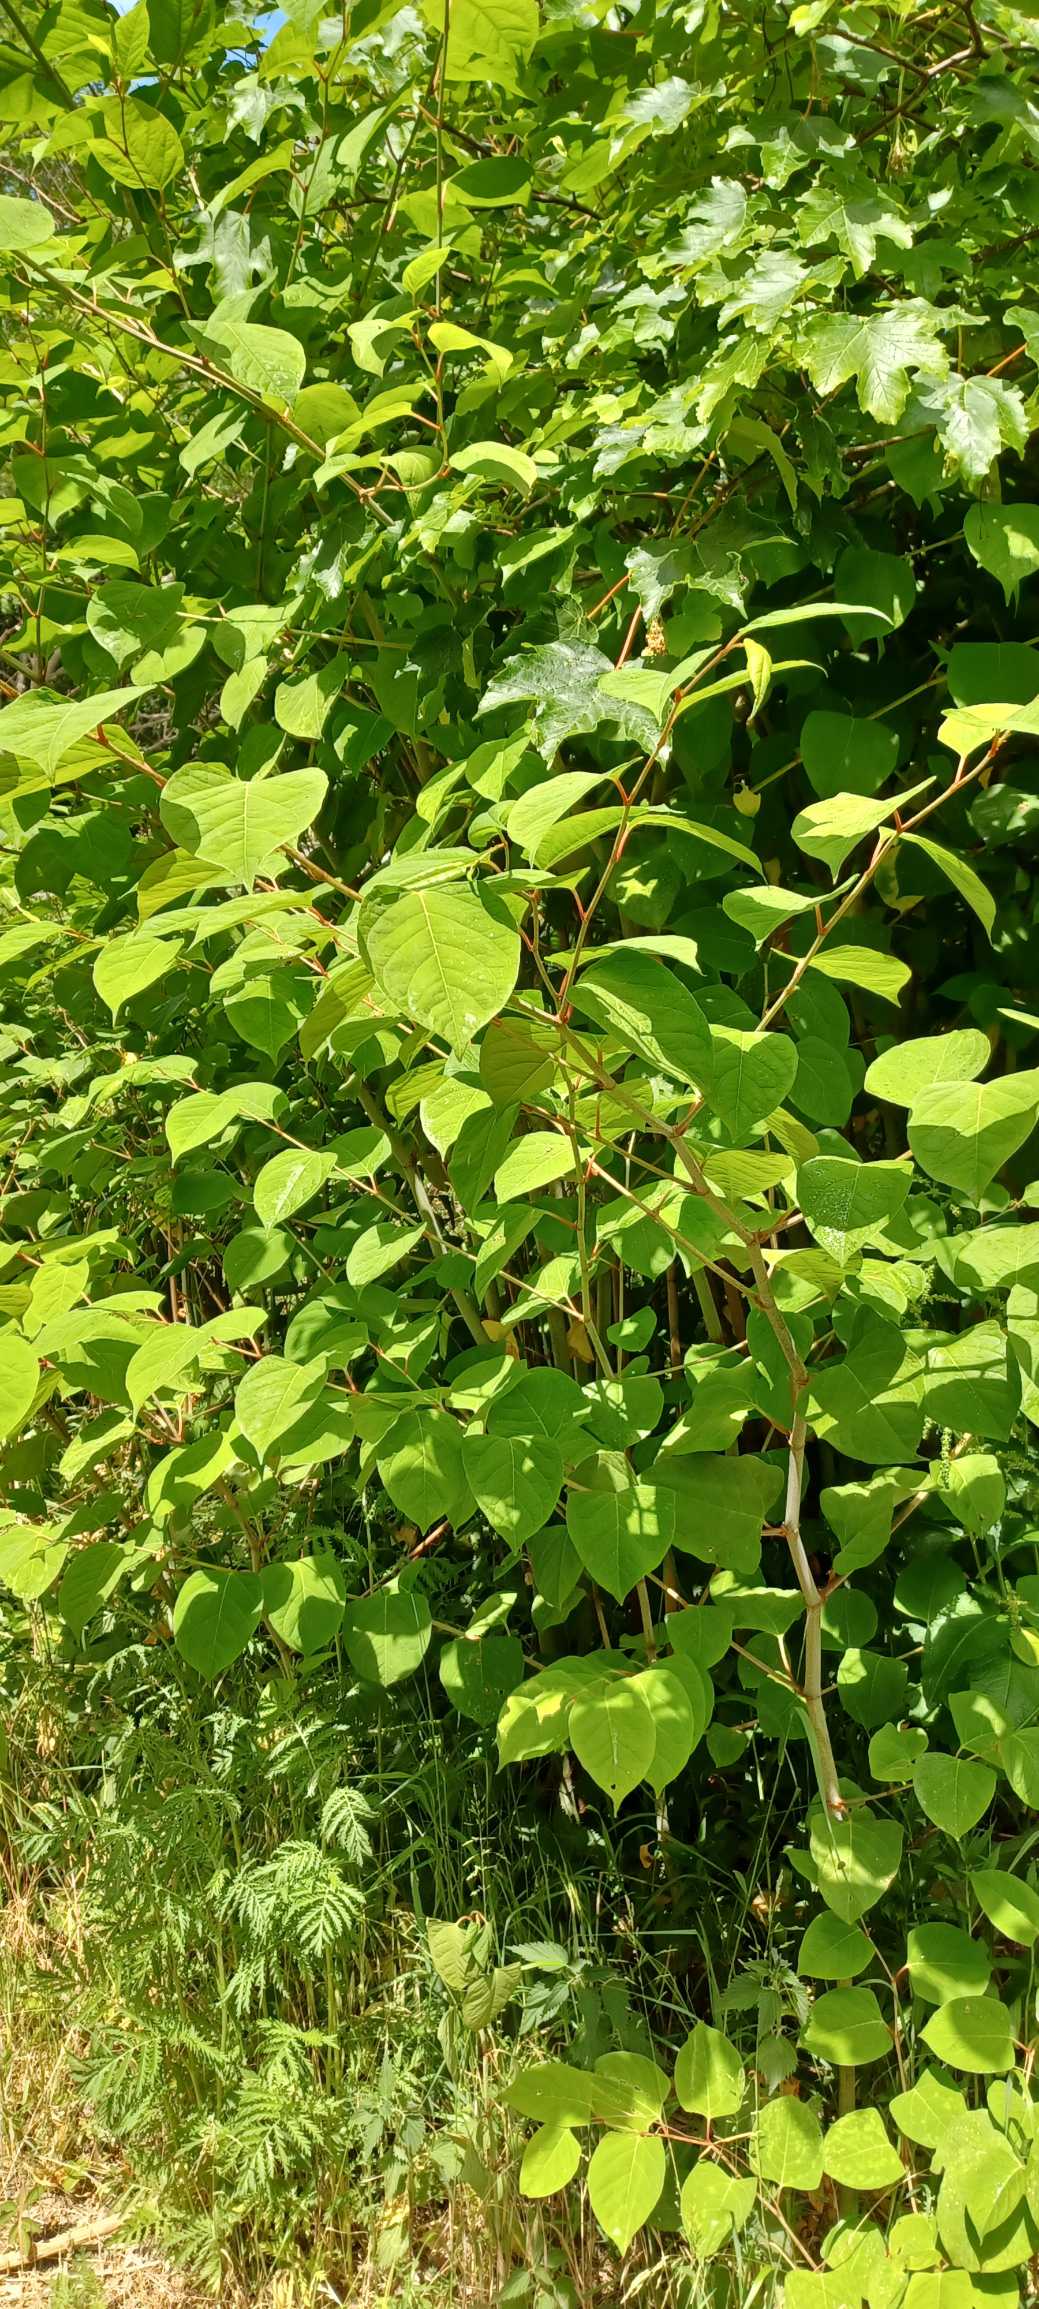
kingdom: Plantae
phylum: Tracheophyta
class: Magnoliopsida
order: Caryophyllales
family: Polygonaceae
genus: Reynoutria
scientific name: Reynoutria japonica
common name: Japan-pileurt
